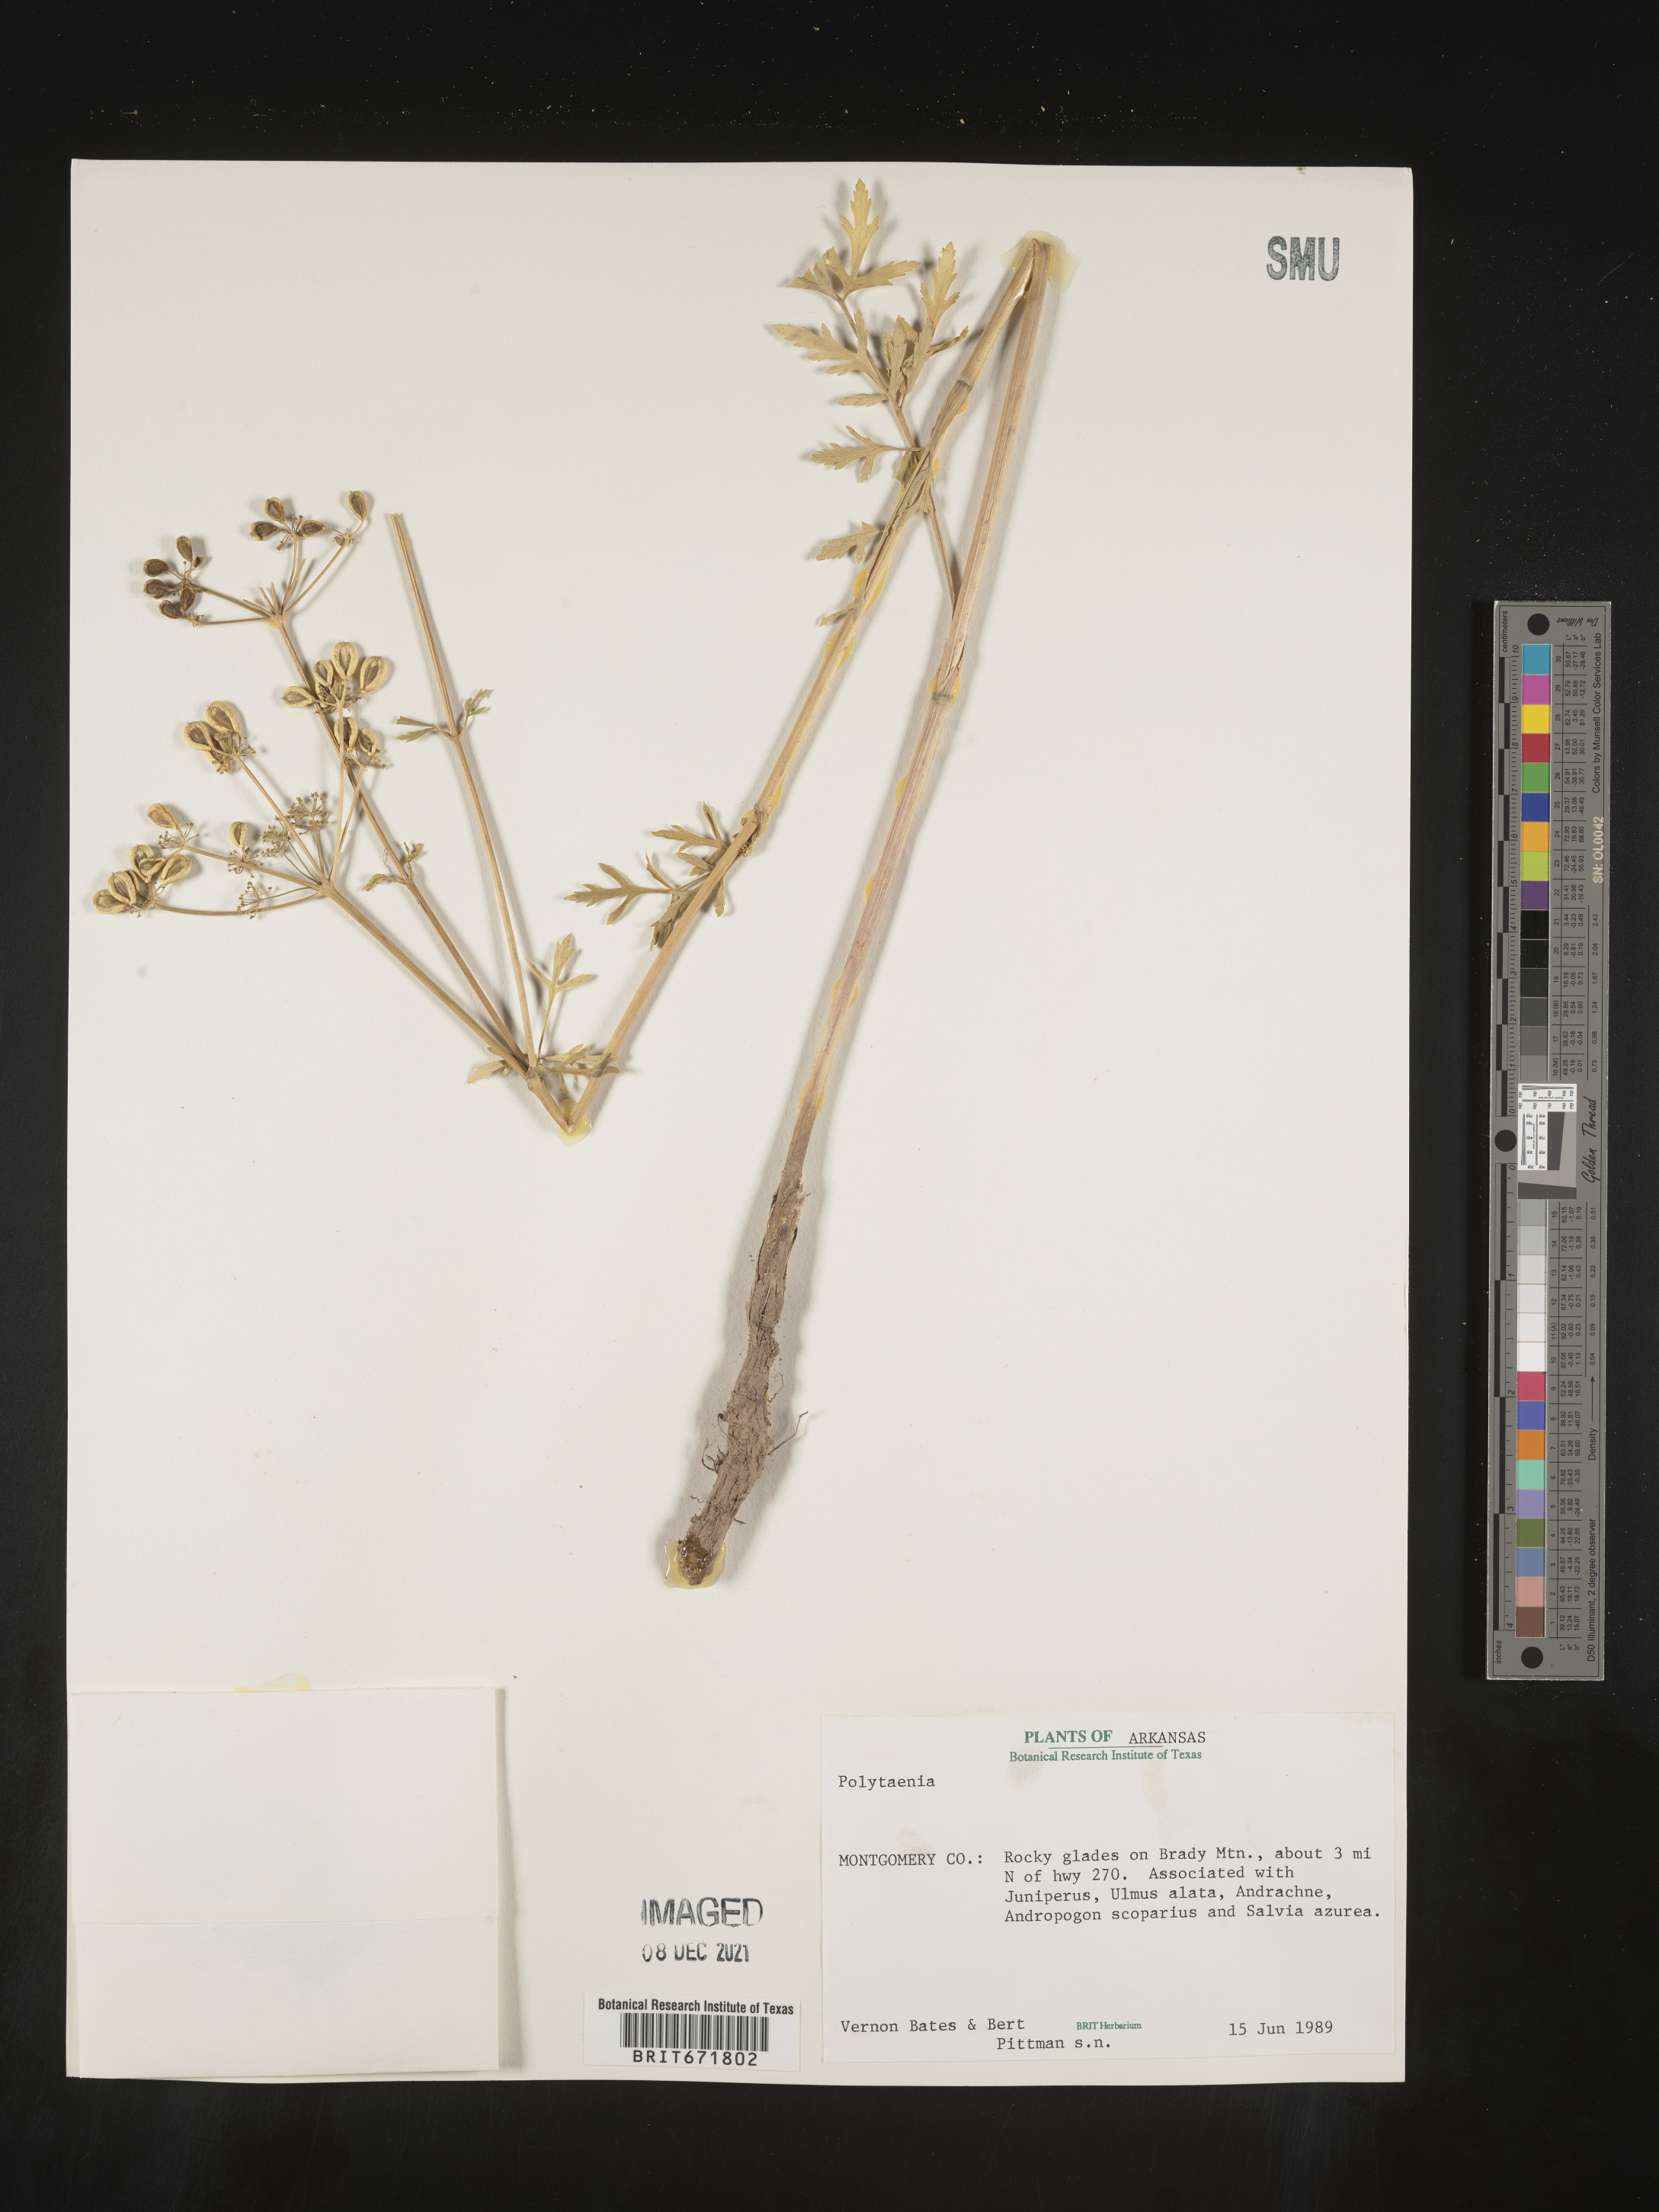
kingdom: Plantae
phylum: Tracheophyta
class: Magnoliopsida
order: Apiales
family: Apiaceae
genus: Polytaenia
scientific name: Polytaenia nuttallii
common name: Prairie-parsley
